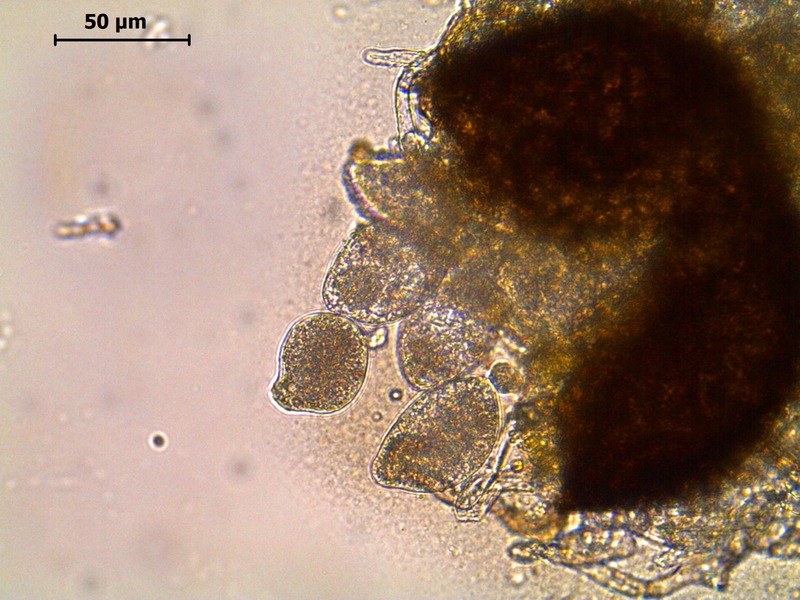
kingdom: Fungi
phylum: Ascomycota
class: Leotiomycetes
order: Helotiales
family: Erysiphaceae
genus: Golovinomyces
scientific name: Golovinomyces cichoracearum
